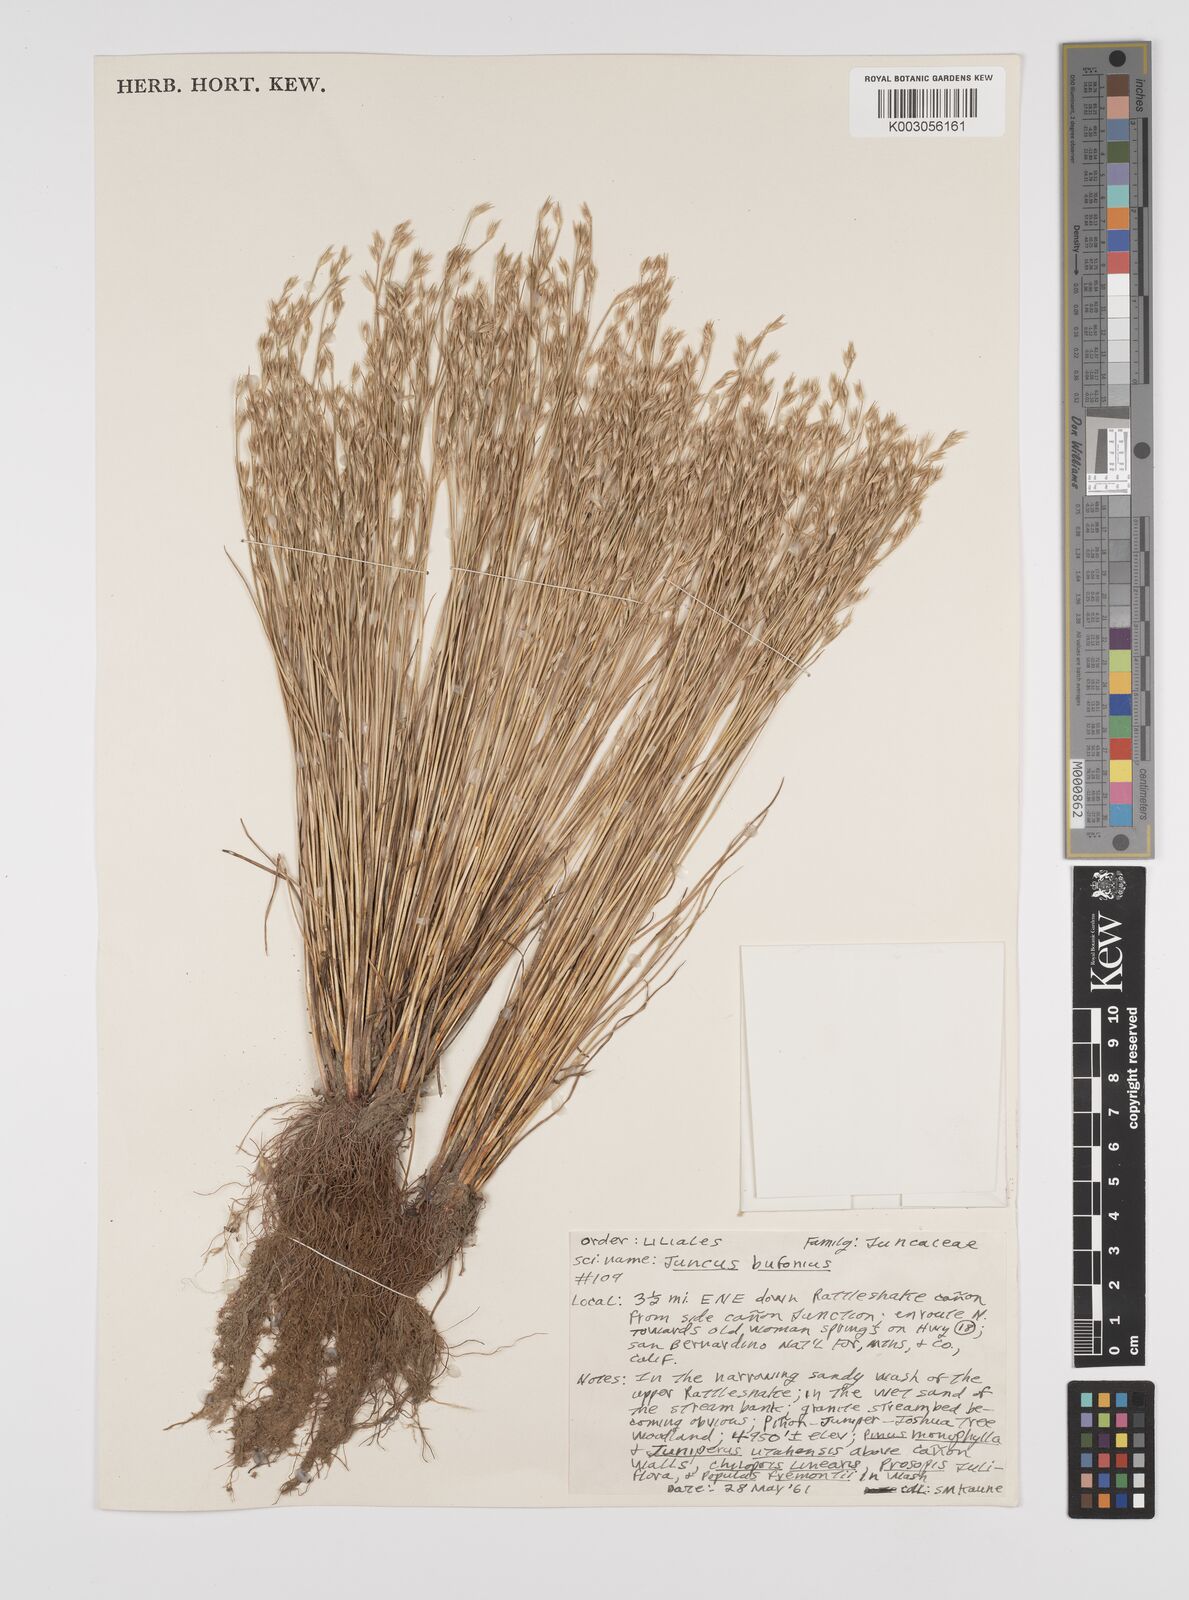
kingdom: Plantae
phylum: Tracheophyta
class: Liliopsida
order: Poales
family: Juncaceae
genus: Juncus
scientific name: Juncus bufonius
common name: Toad rush
